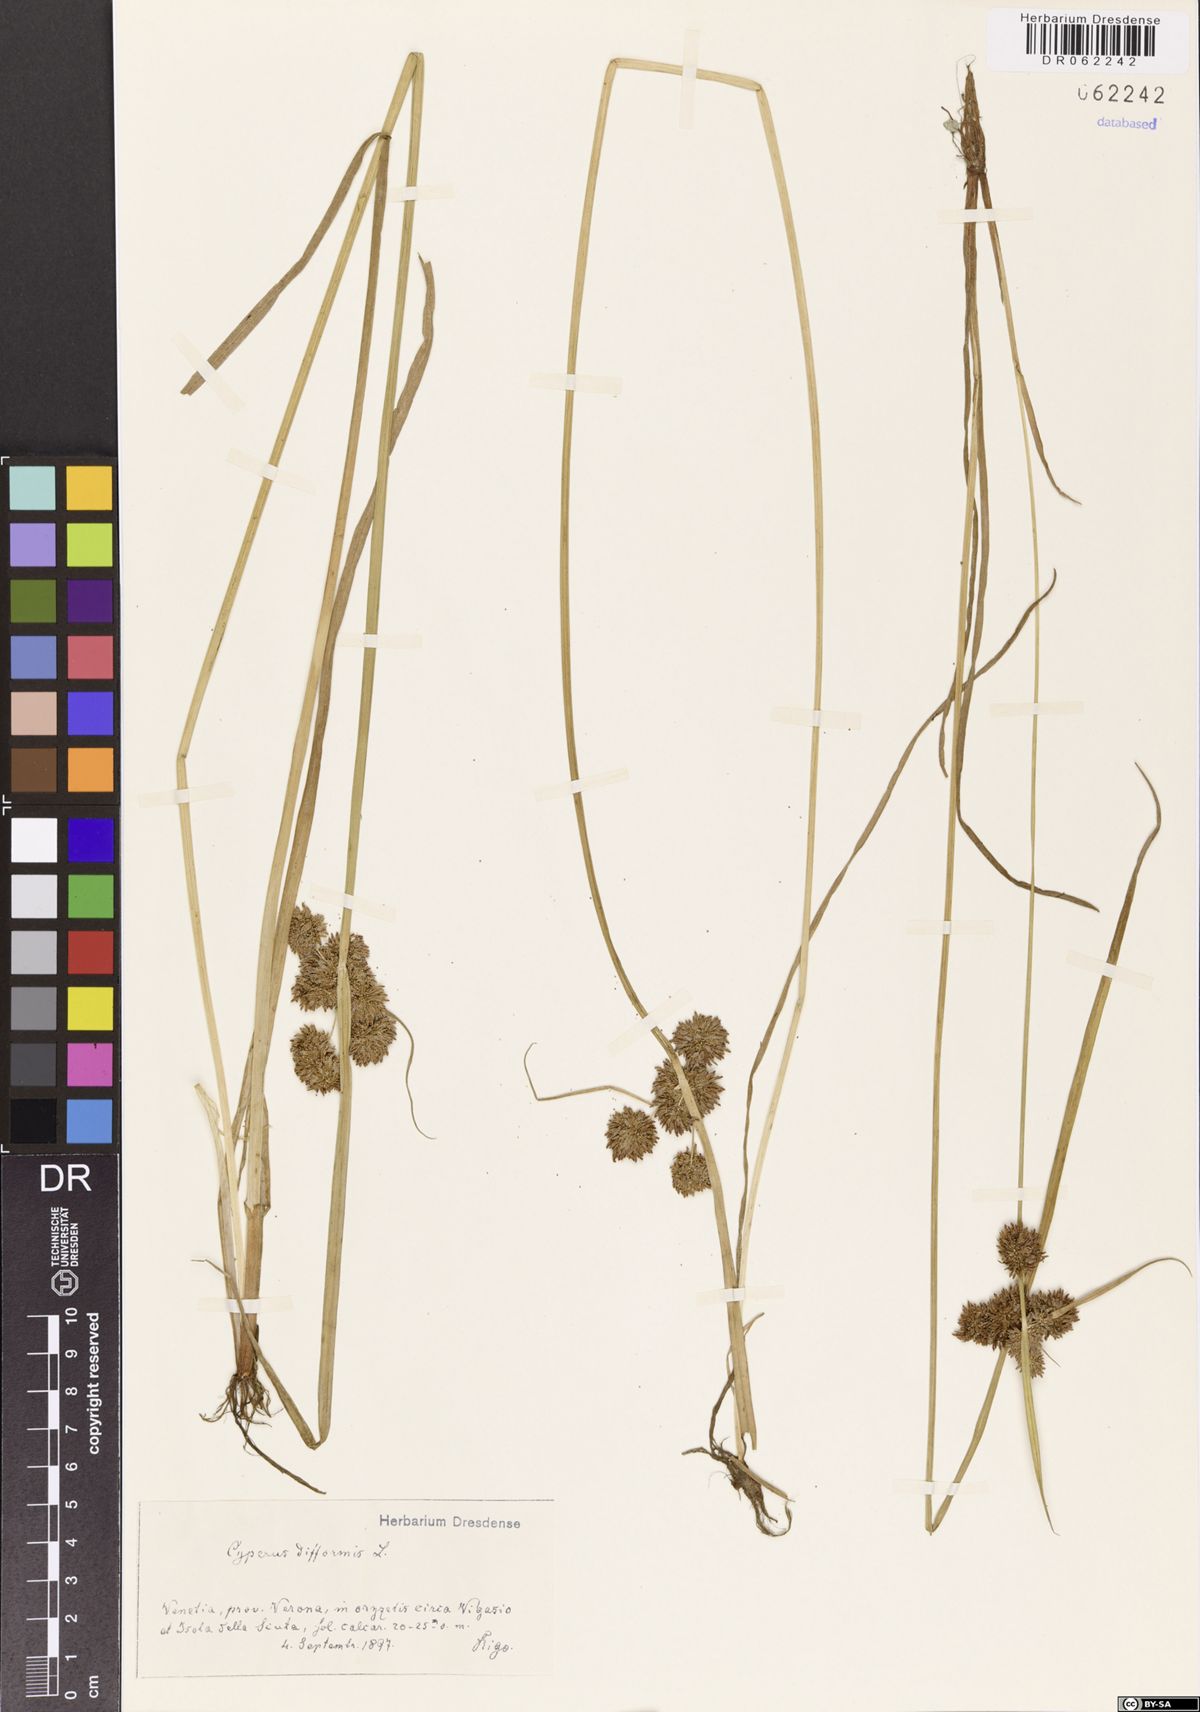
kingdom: Plantae
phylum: Tracheophyta
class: Liliopsida
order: Poales
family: Cyperaceae
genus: Cyperus
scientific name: Cyperus difformis
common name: Variable flatsedge
